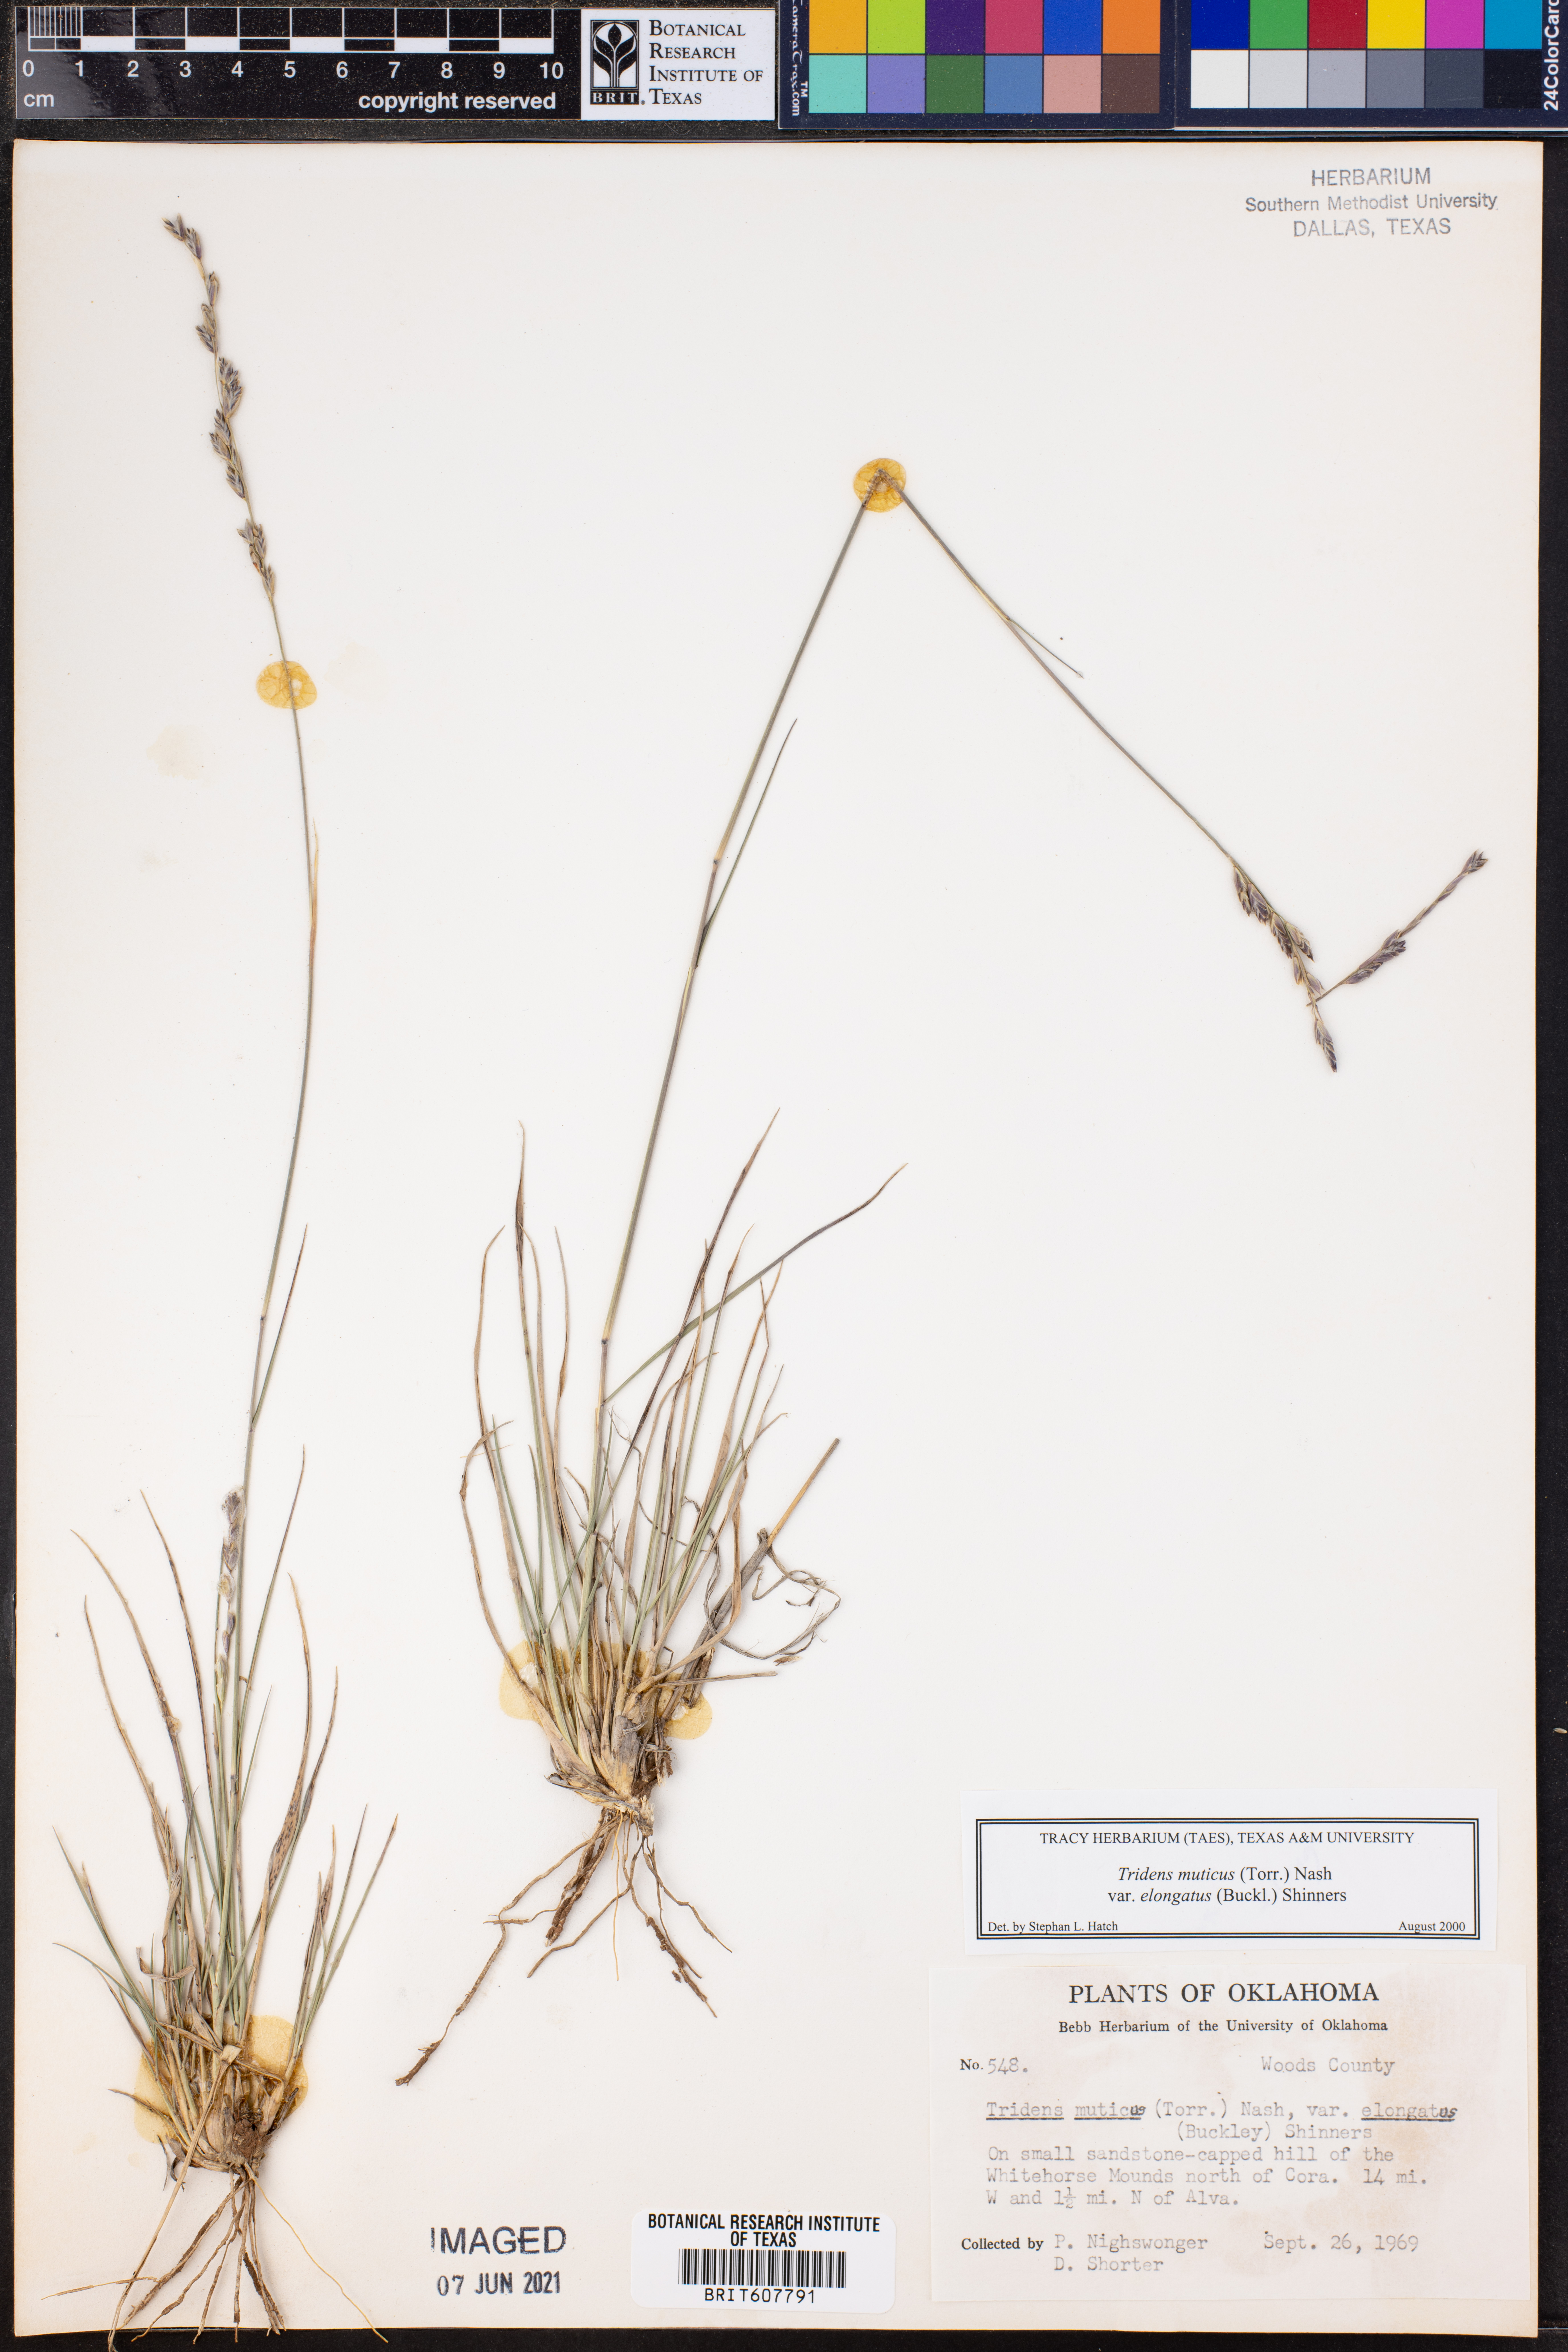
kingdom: Plantae
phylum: Tracheophyta
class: Liliopsida
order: Poales
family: Poaceae
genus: Tridentopsis
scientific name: Tridentopsis mutica
